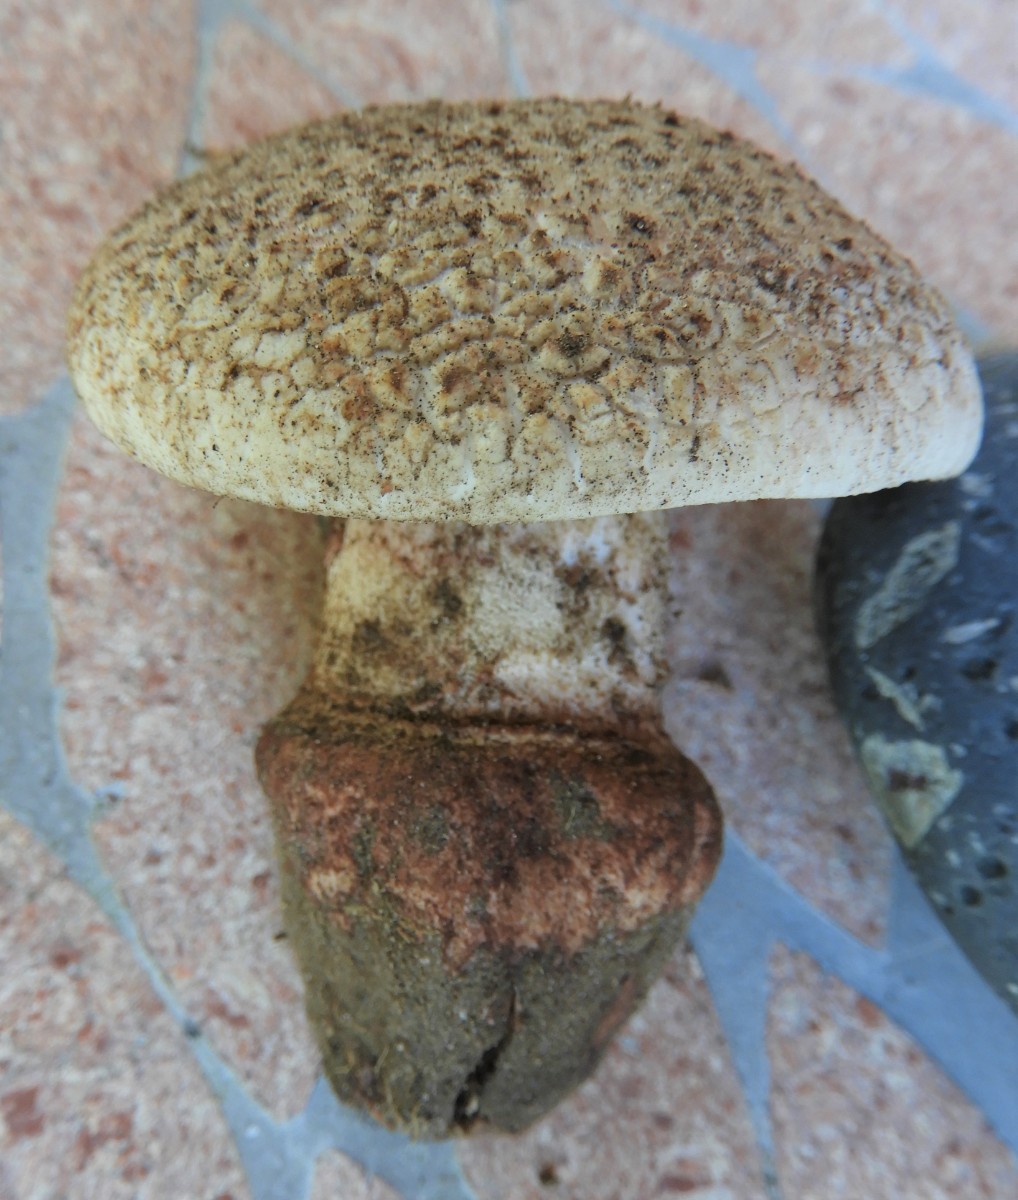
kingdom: Fungi
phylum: Basidiomycota
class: Agaricomycetes
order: Agaricales
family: Amanitaceae
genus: Amanita
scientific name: Amanita rubescens
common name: rødmende fluesvamp
